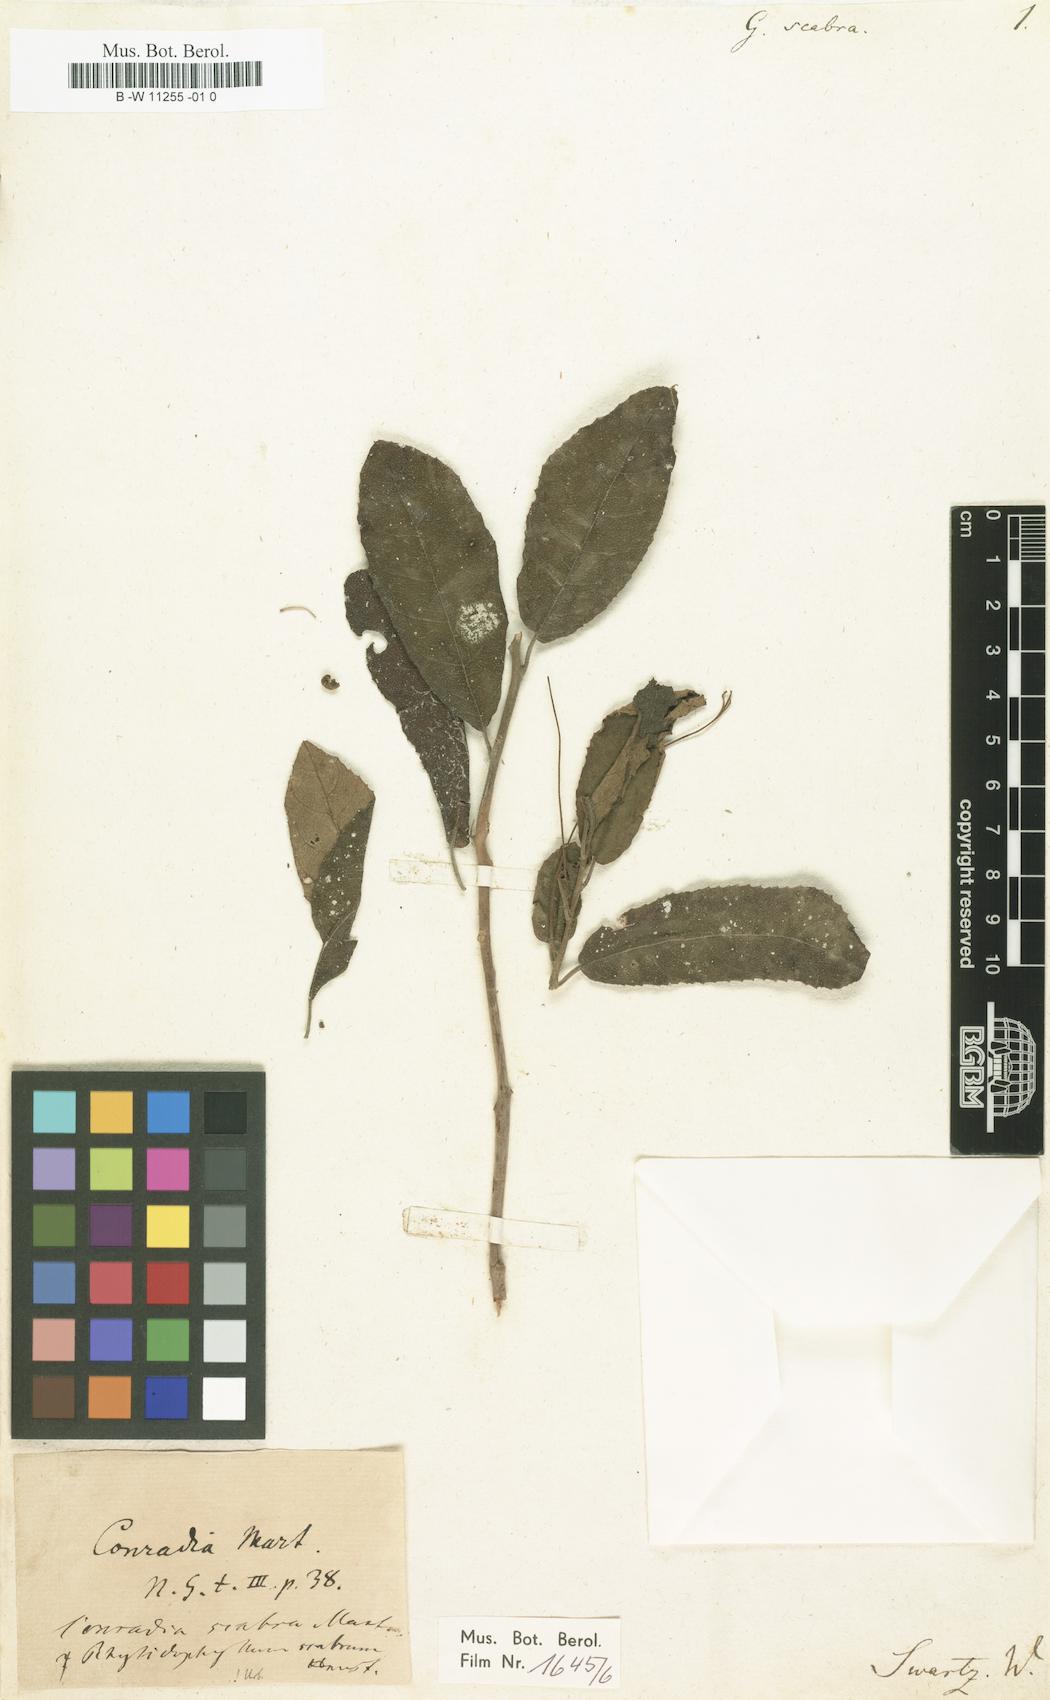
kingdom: Plantae
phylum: Tracheophyta
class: Magnoliopsida
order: Lamiales
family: Gesneriaceae
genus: Gesneria
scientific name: Gesneria scabra
